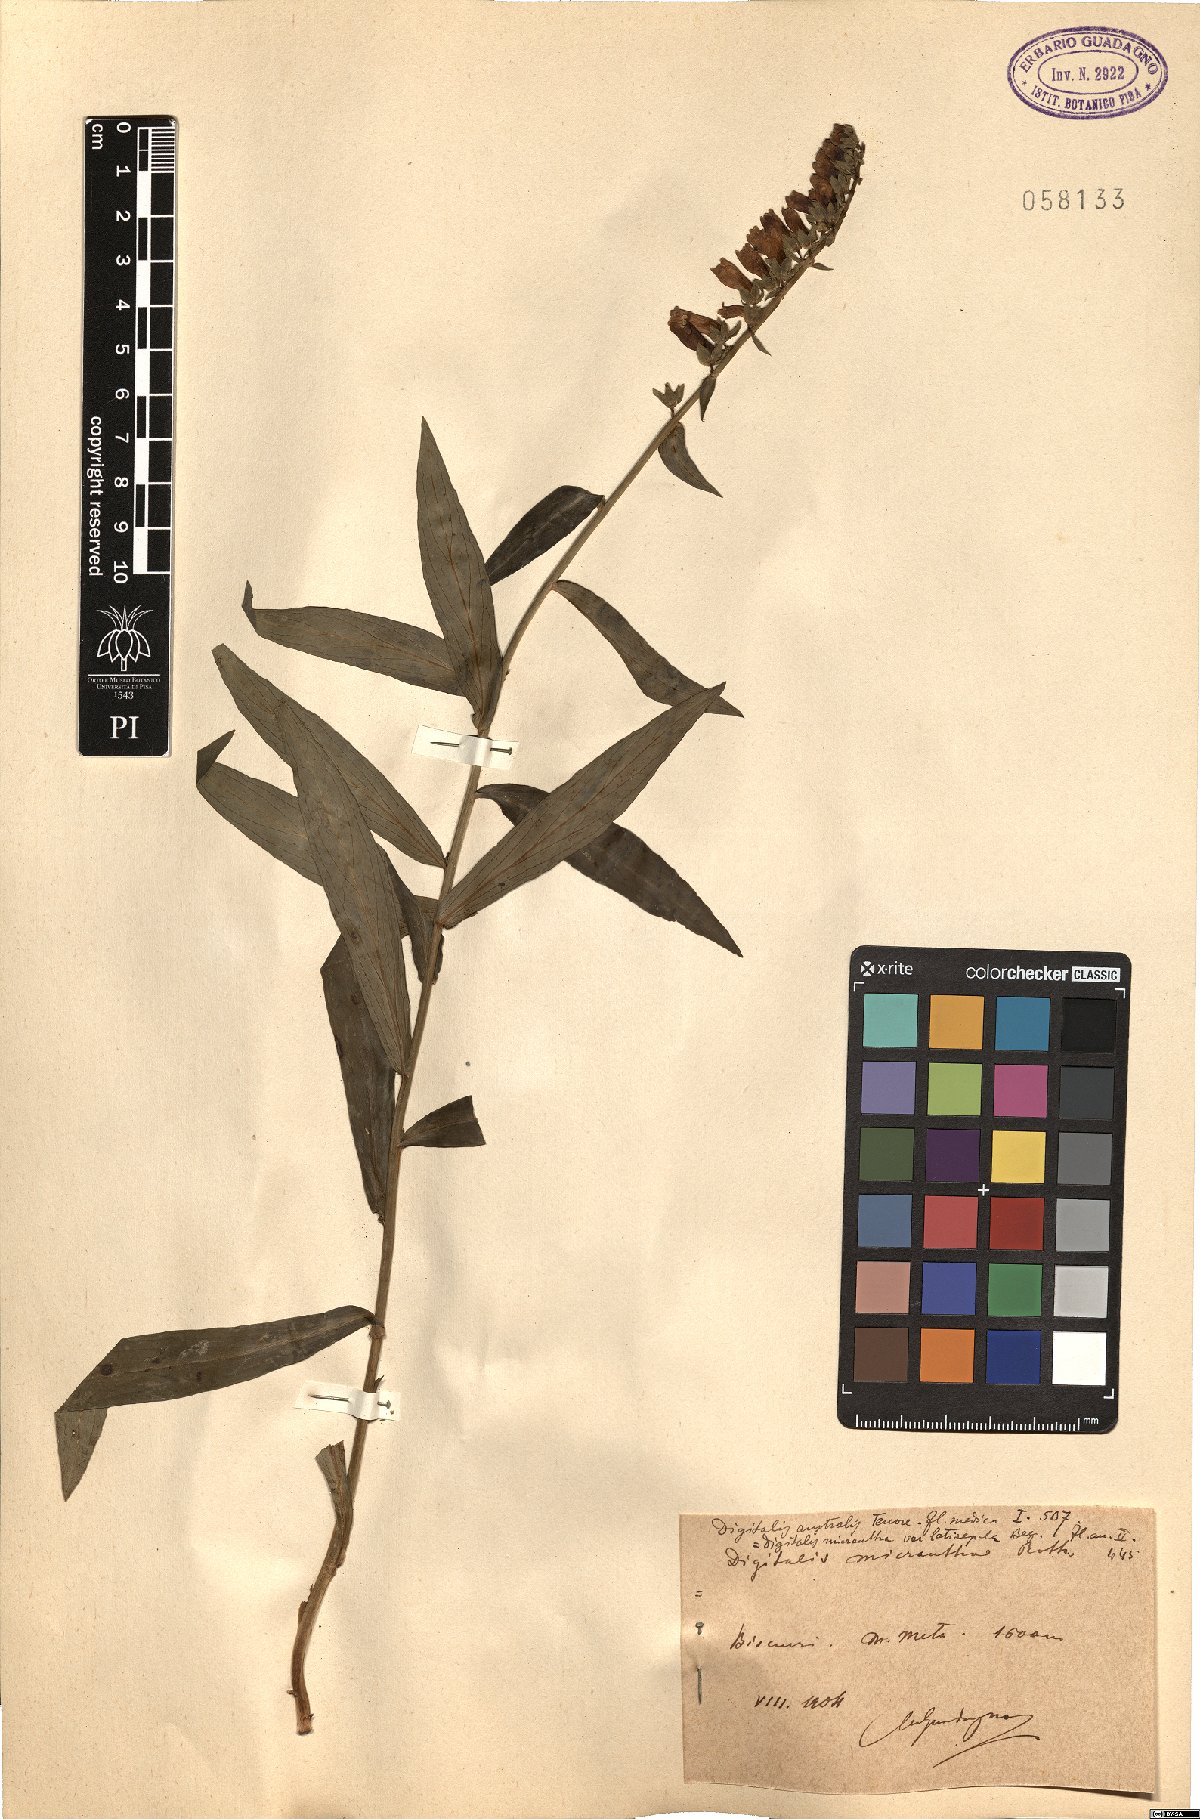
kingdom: Plantae
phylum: Tracheophyta
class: Magnoliopsida
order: Lamiales
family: Plantaginaceae
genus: Digitalis
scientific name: Digitalis lutea
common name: Straw foxglove
